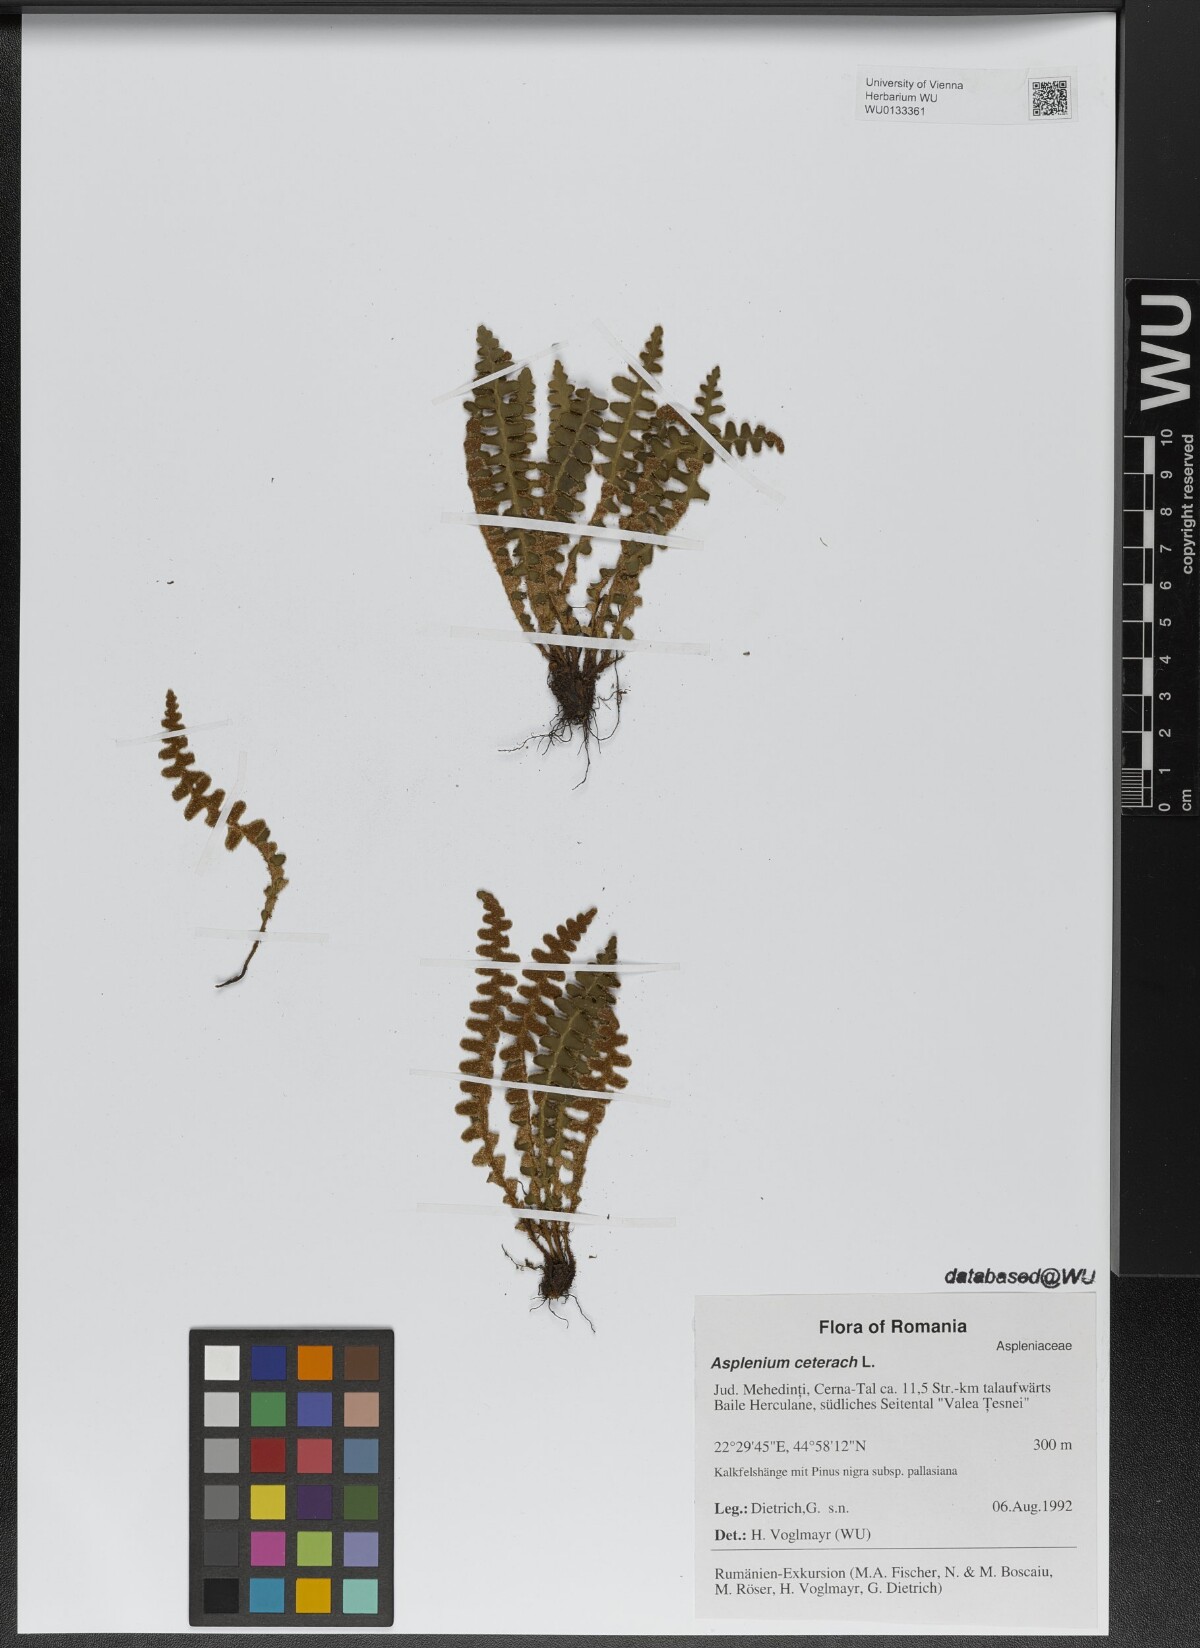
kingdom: Plantae
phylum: Tracheophyta
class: Polypodiopsida
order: Polypodiales
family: Aspleniaceae
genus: Asplenium
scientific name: Asplenium ceterach
